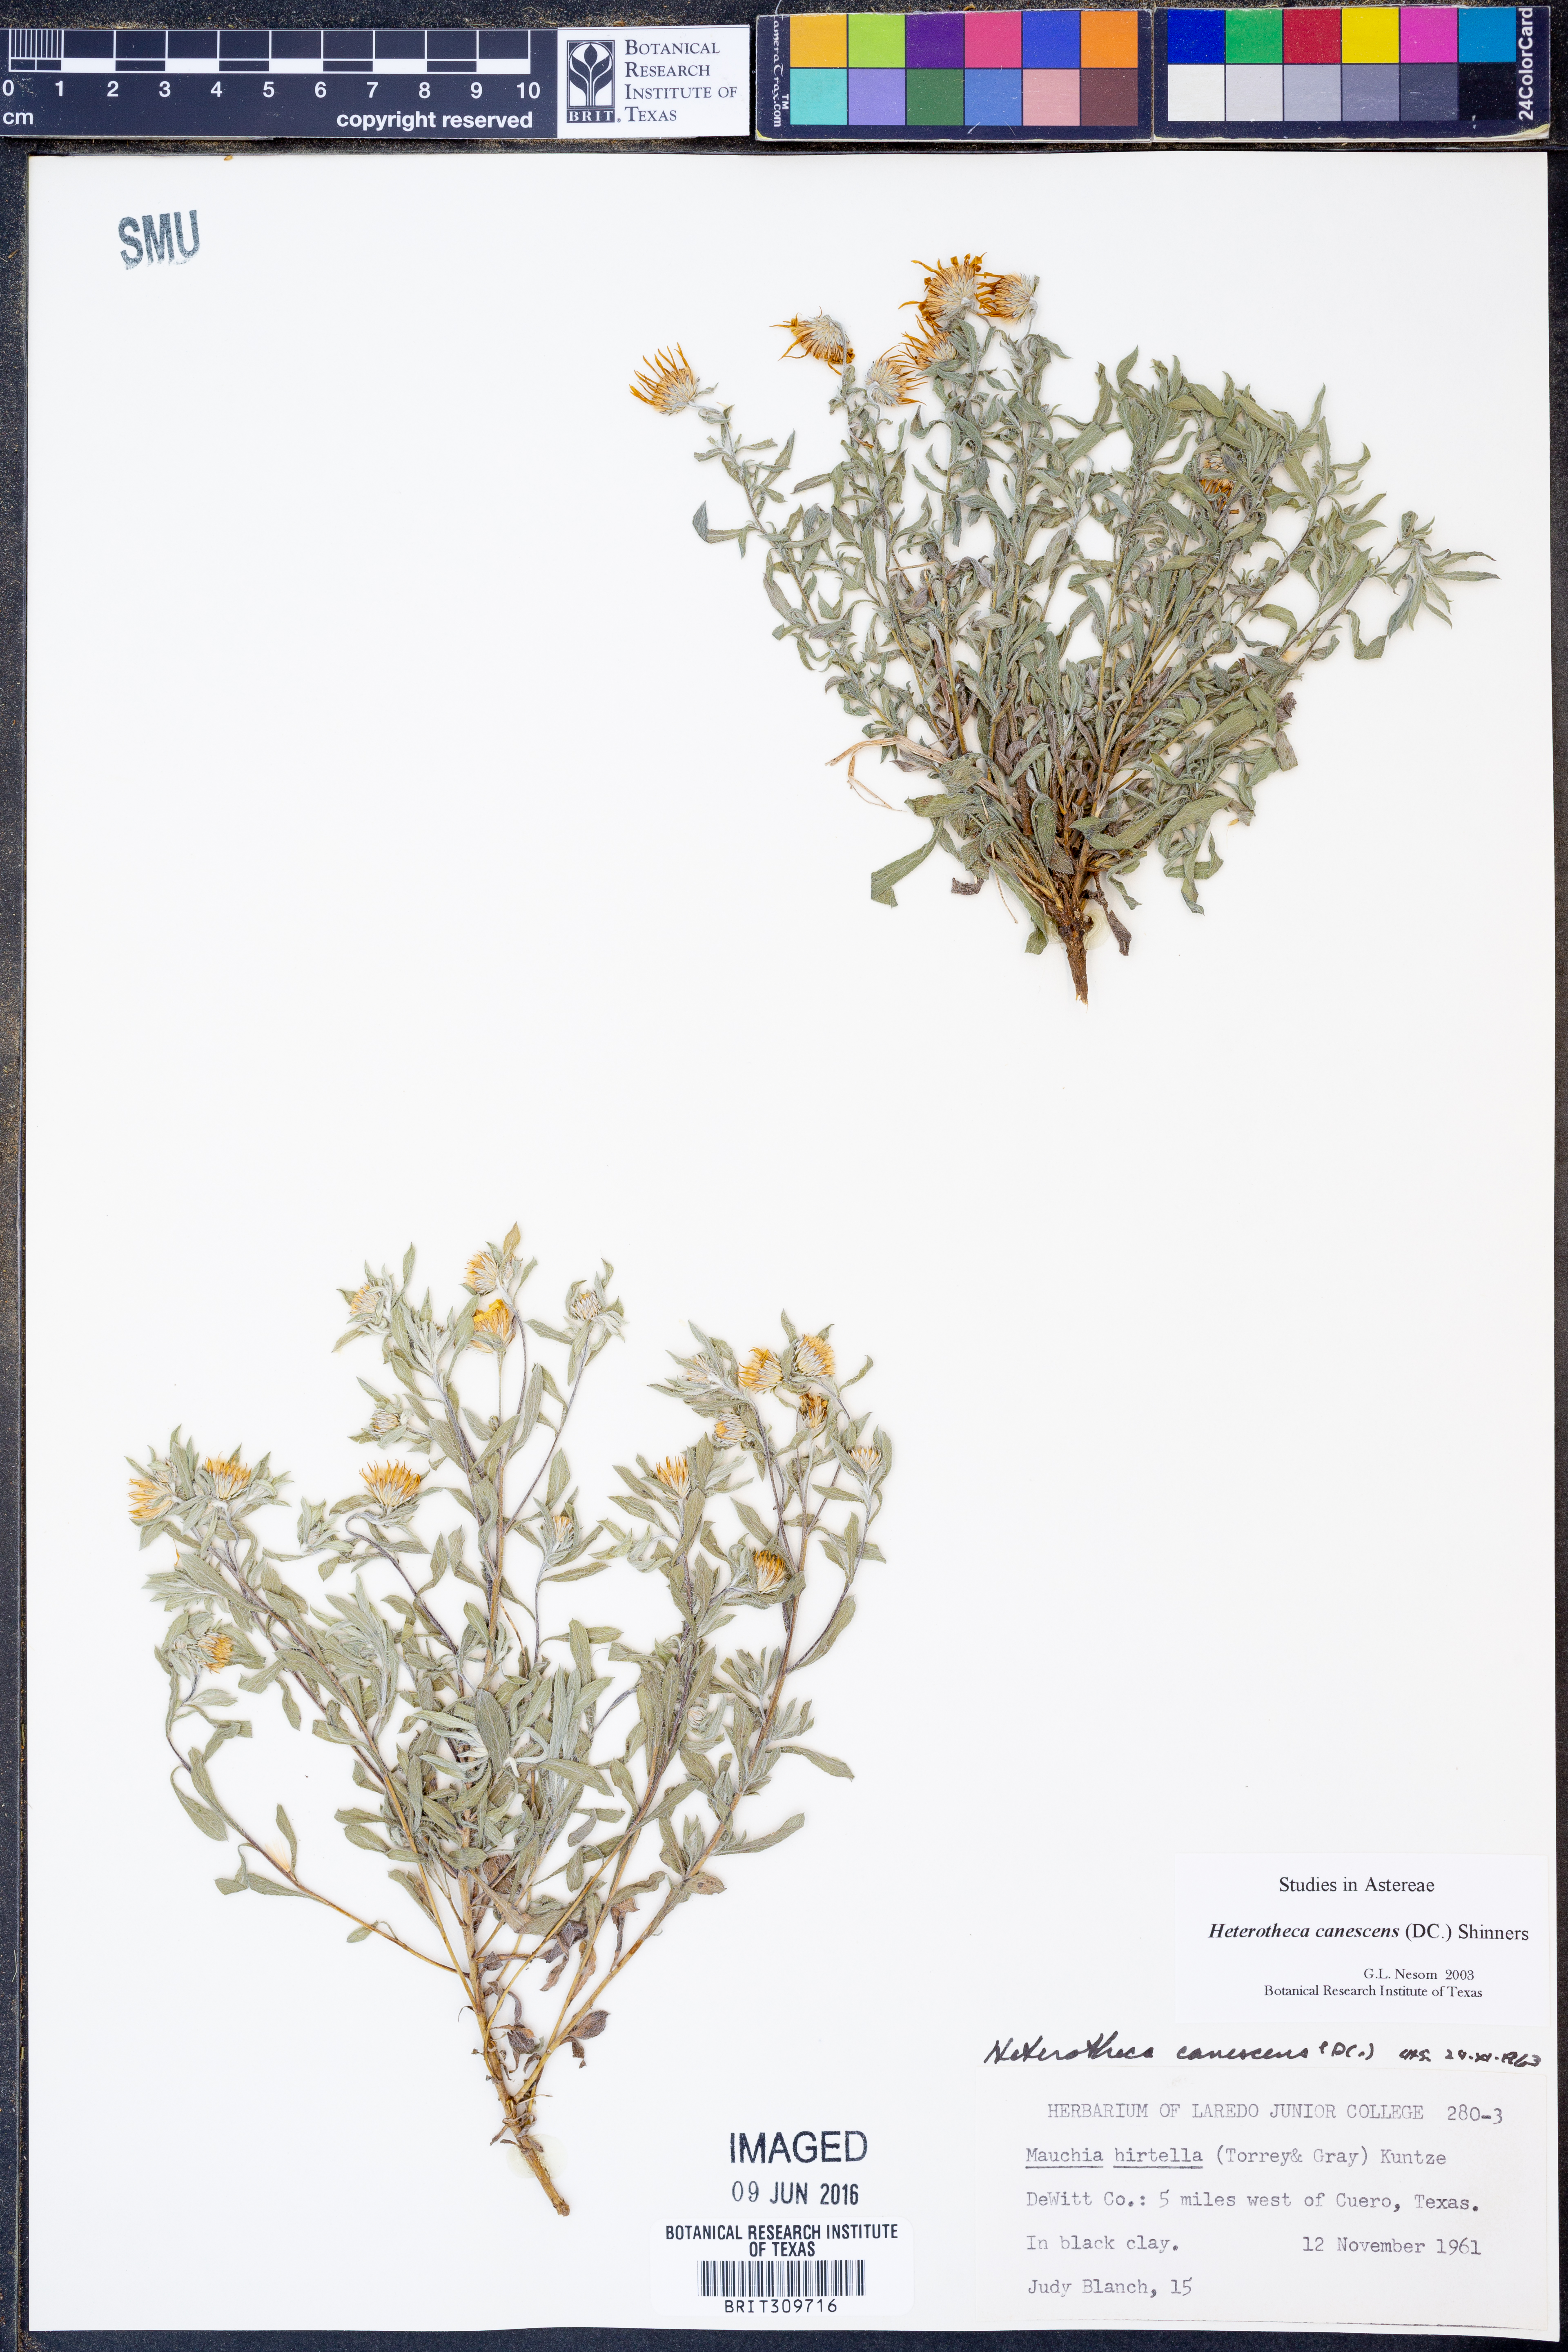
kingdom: Plantae
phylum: Tracheophyta
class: Magnoliopsida
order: Asterales
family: Asteraceae
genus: Heterotheca
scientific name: Heterotheca canescens
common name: Hoary golden-aster
